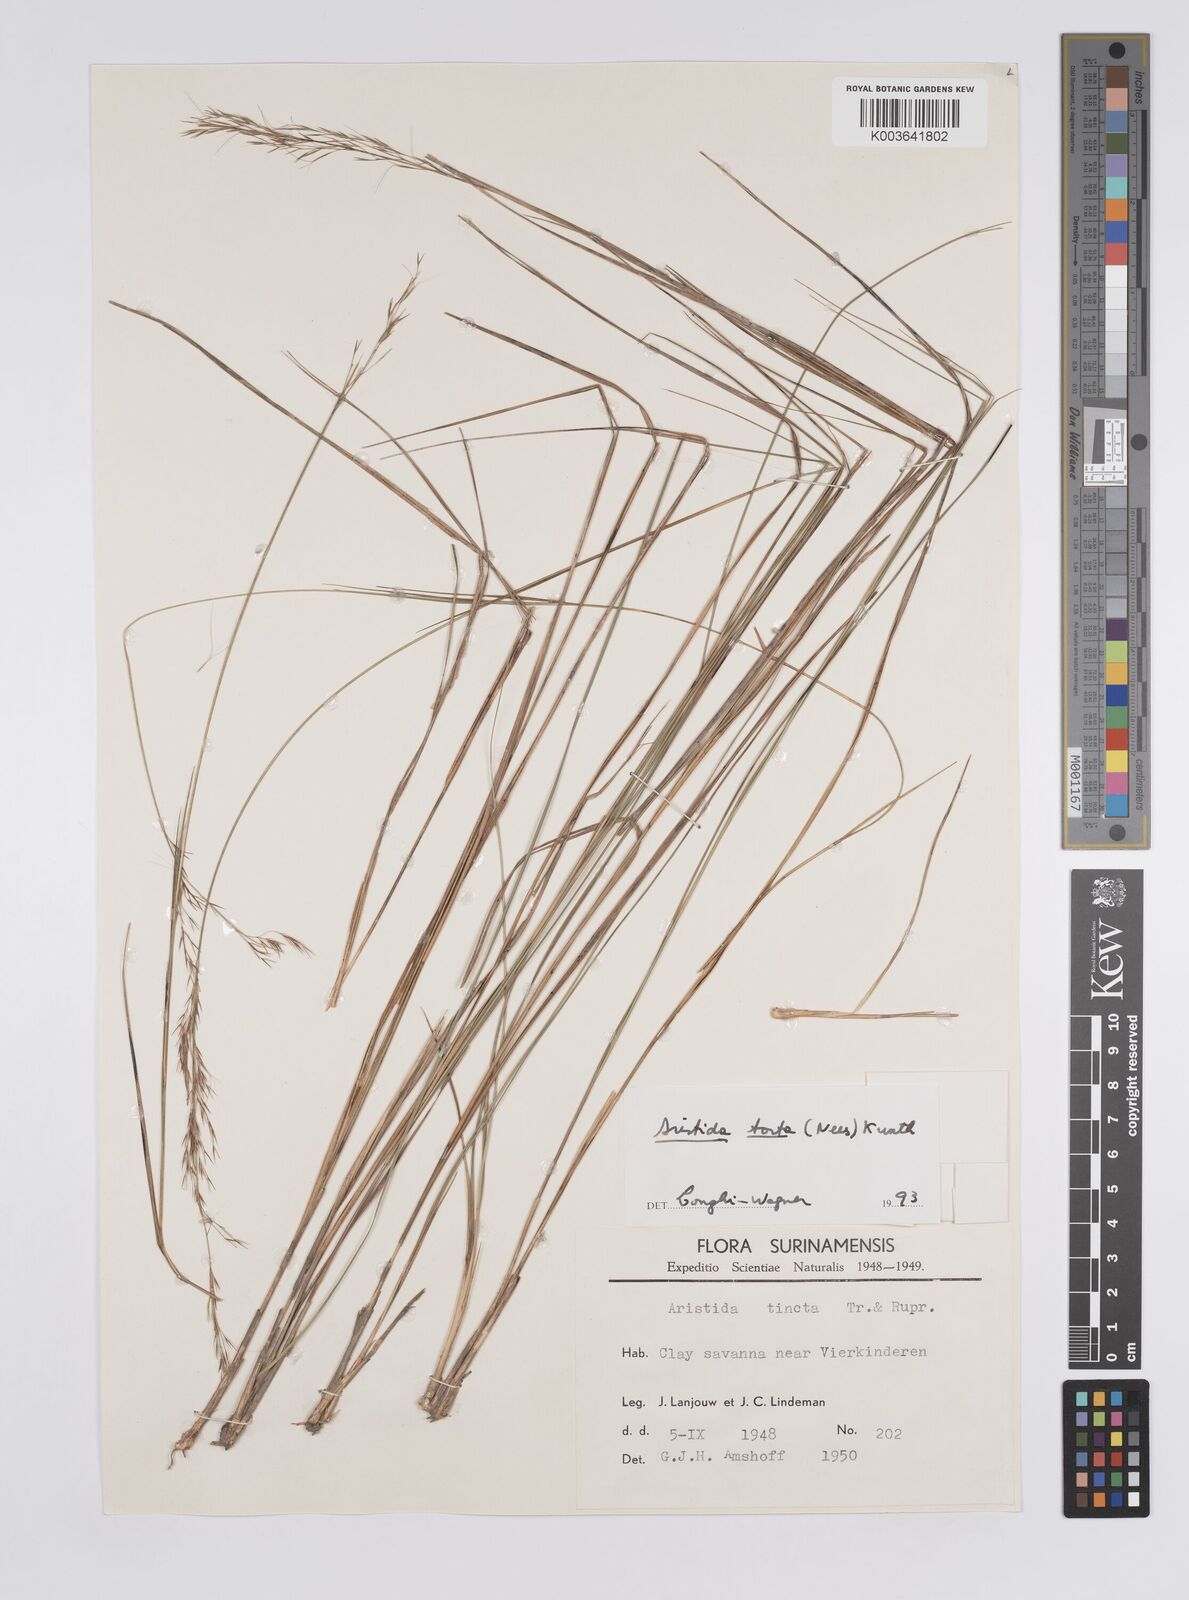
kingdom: Plantae
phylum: Tracheophyta
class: Liliopsida
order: Poales
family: Poaceae
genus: Aristida
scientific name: Aristida torta
